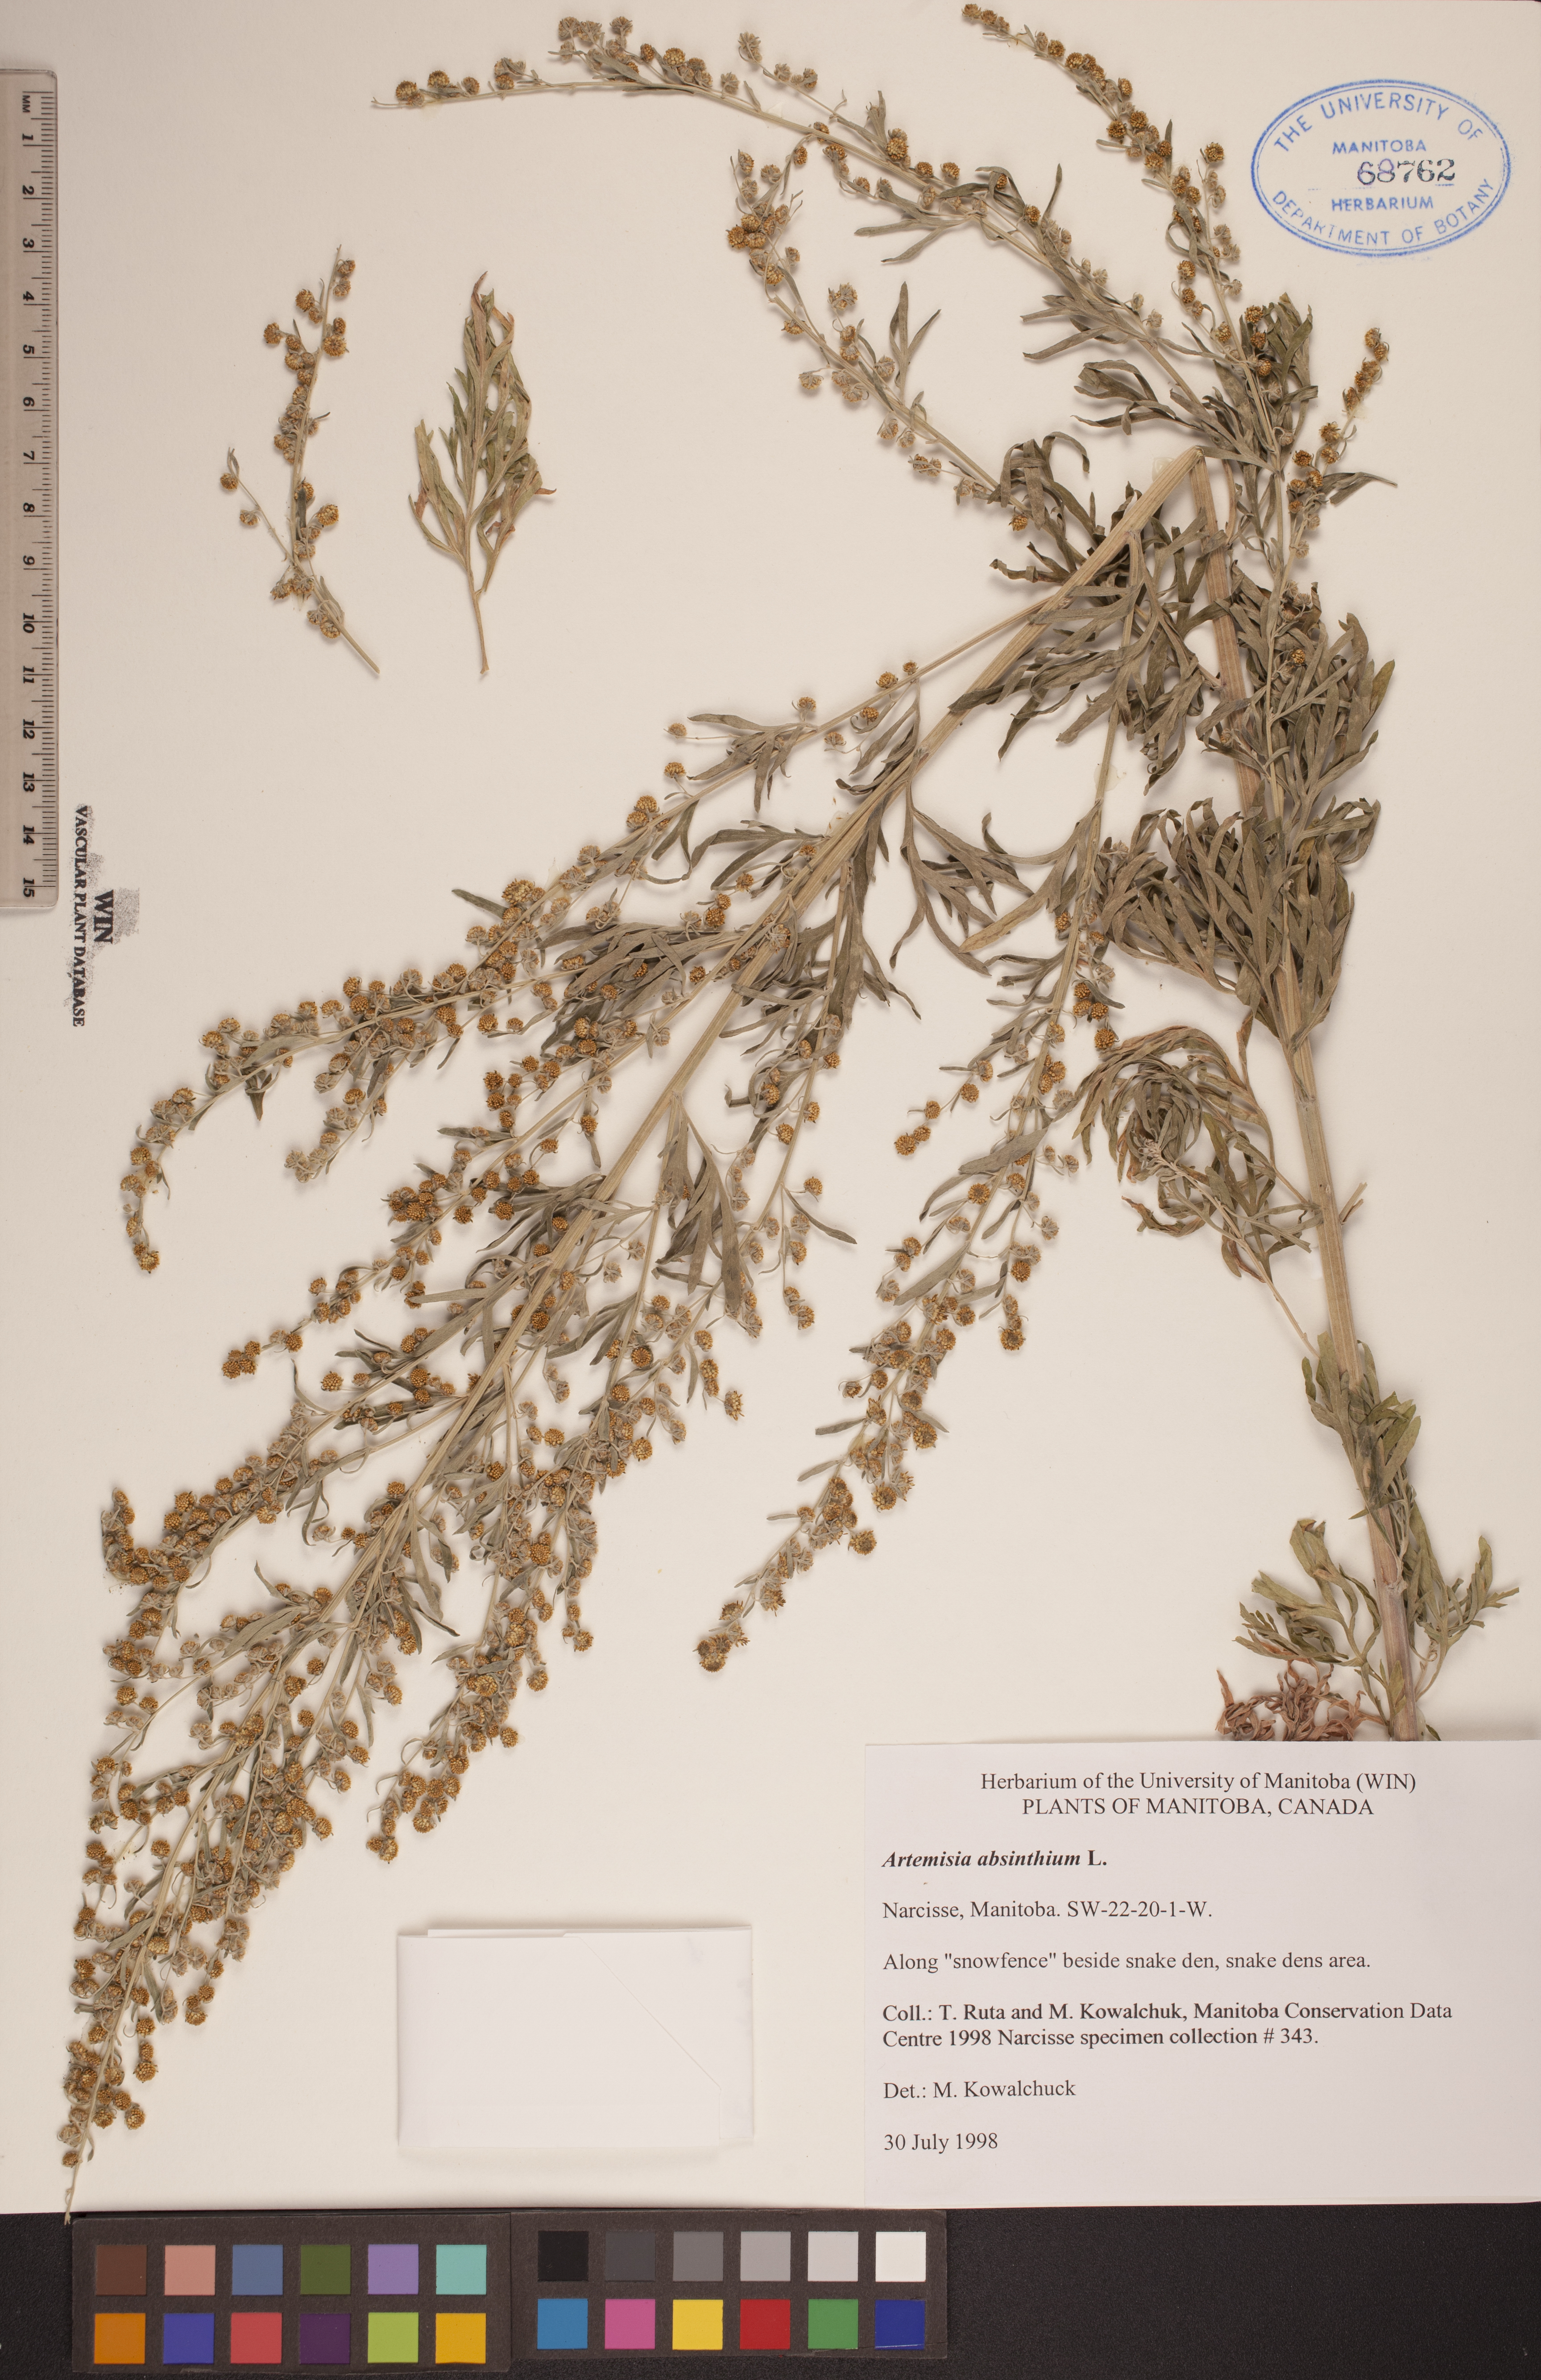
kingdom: Plantae
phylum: Tracheophyta
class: Magnoliopsida
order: Asterales
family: Asteraceae
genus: Artemisia
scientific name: Artemisia absinthium
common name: Wormwood
